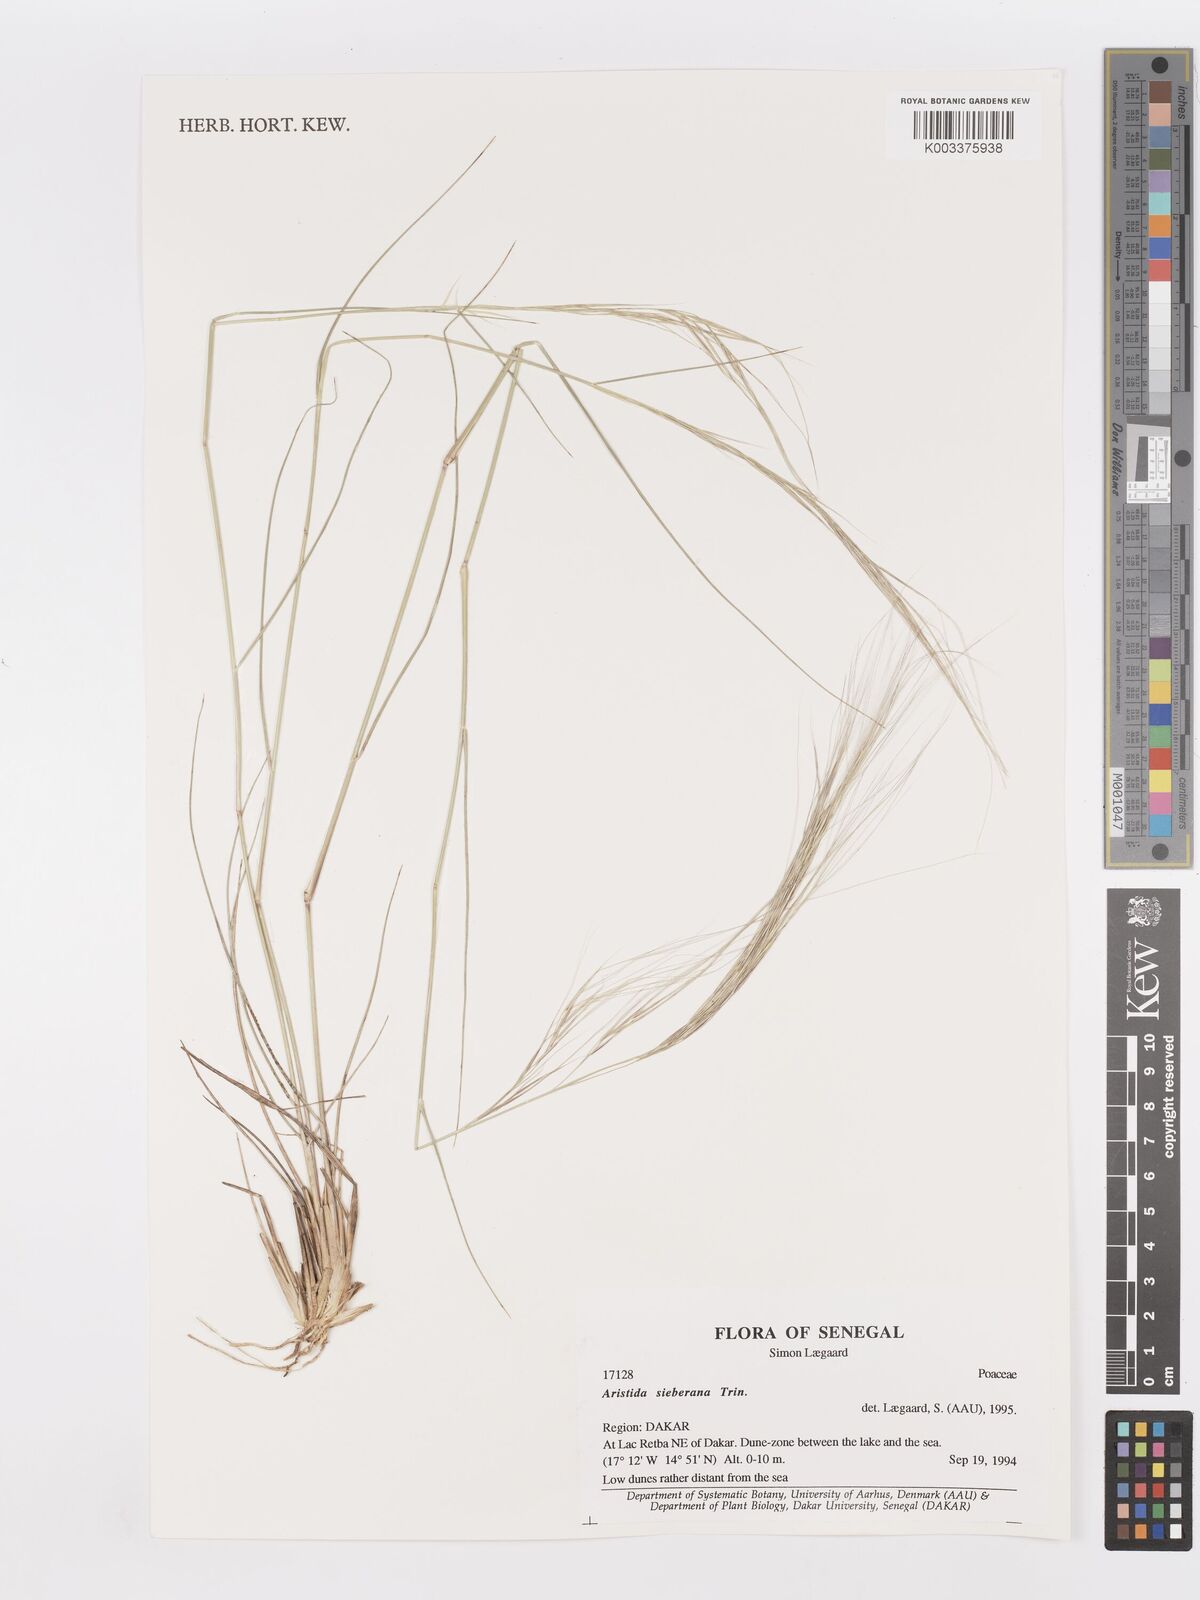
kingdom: Plantae
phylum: Tracheophyta
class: Liliopsida
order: Poales
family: Poaceae
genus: Aristida
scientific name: Aristida sieberiana
